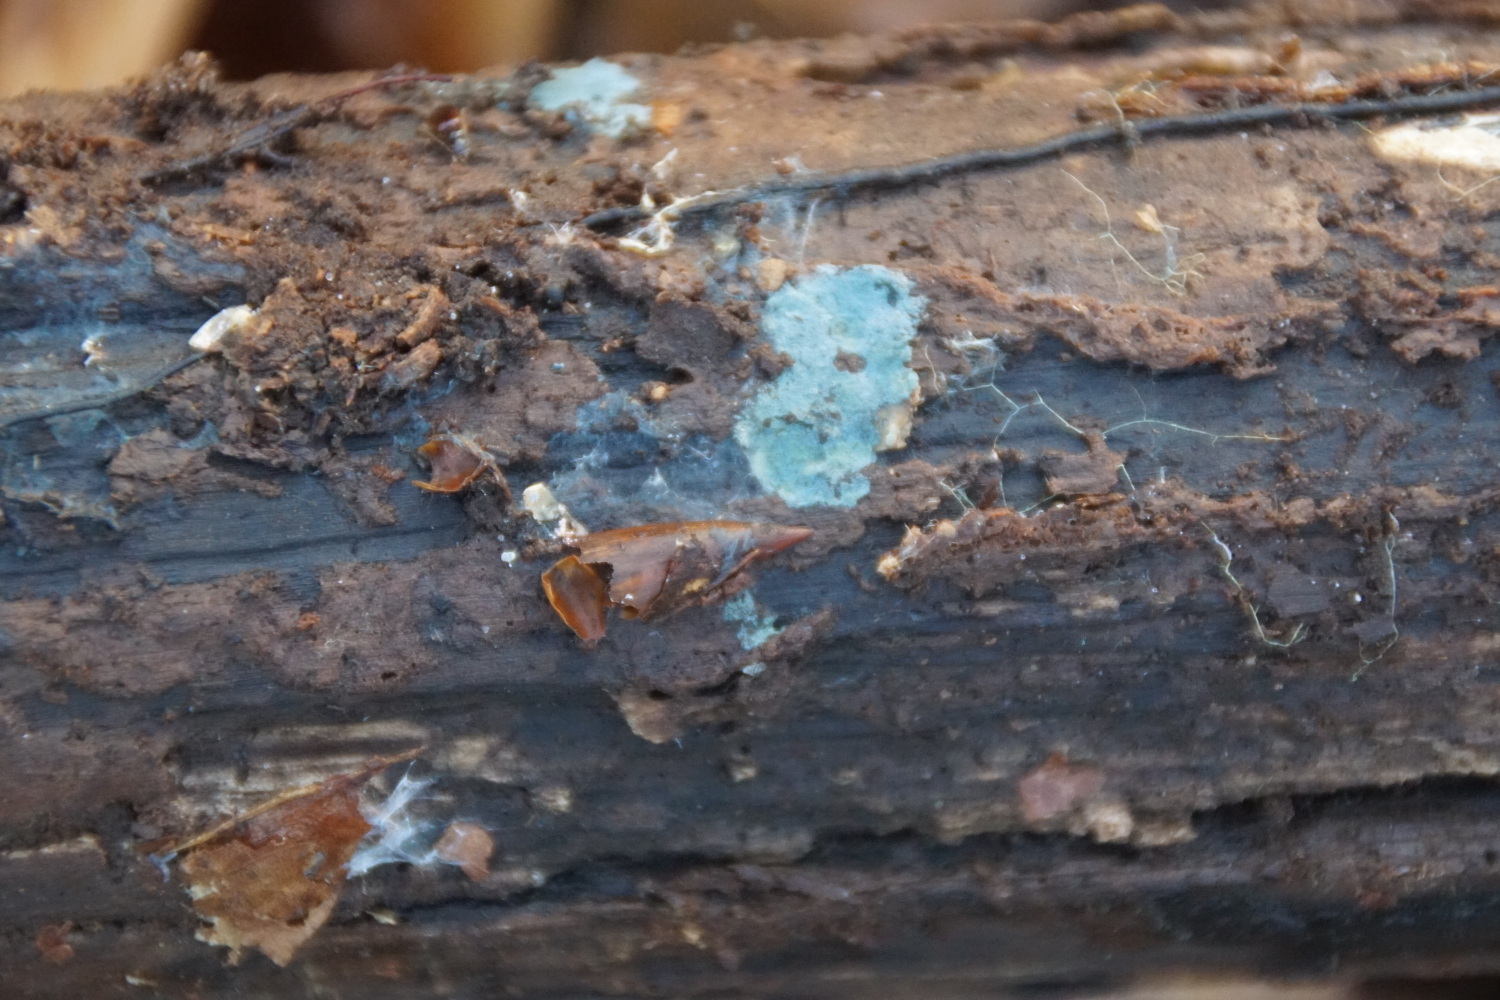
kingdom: Fungi
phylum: Basidiomycota
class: Agaricomycetes
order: Atheliales
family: Atheliaceae
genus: Byssocorticium
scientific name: Byssocorticium
